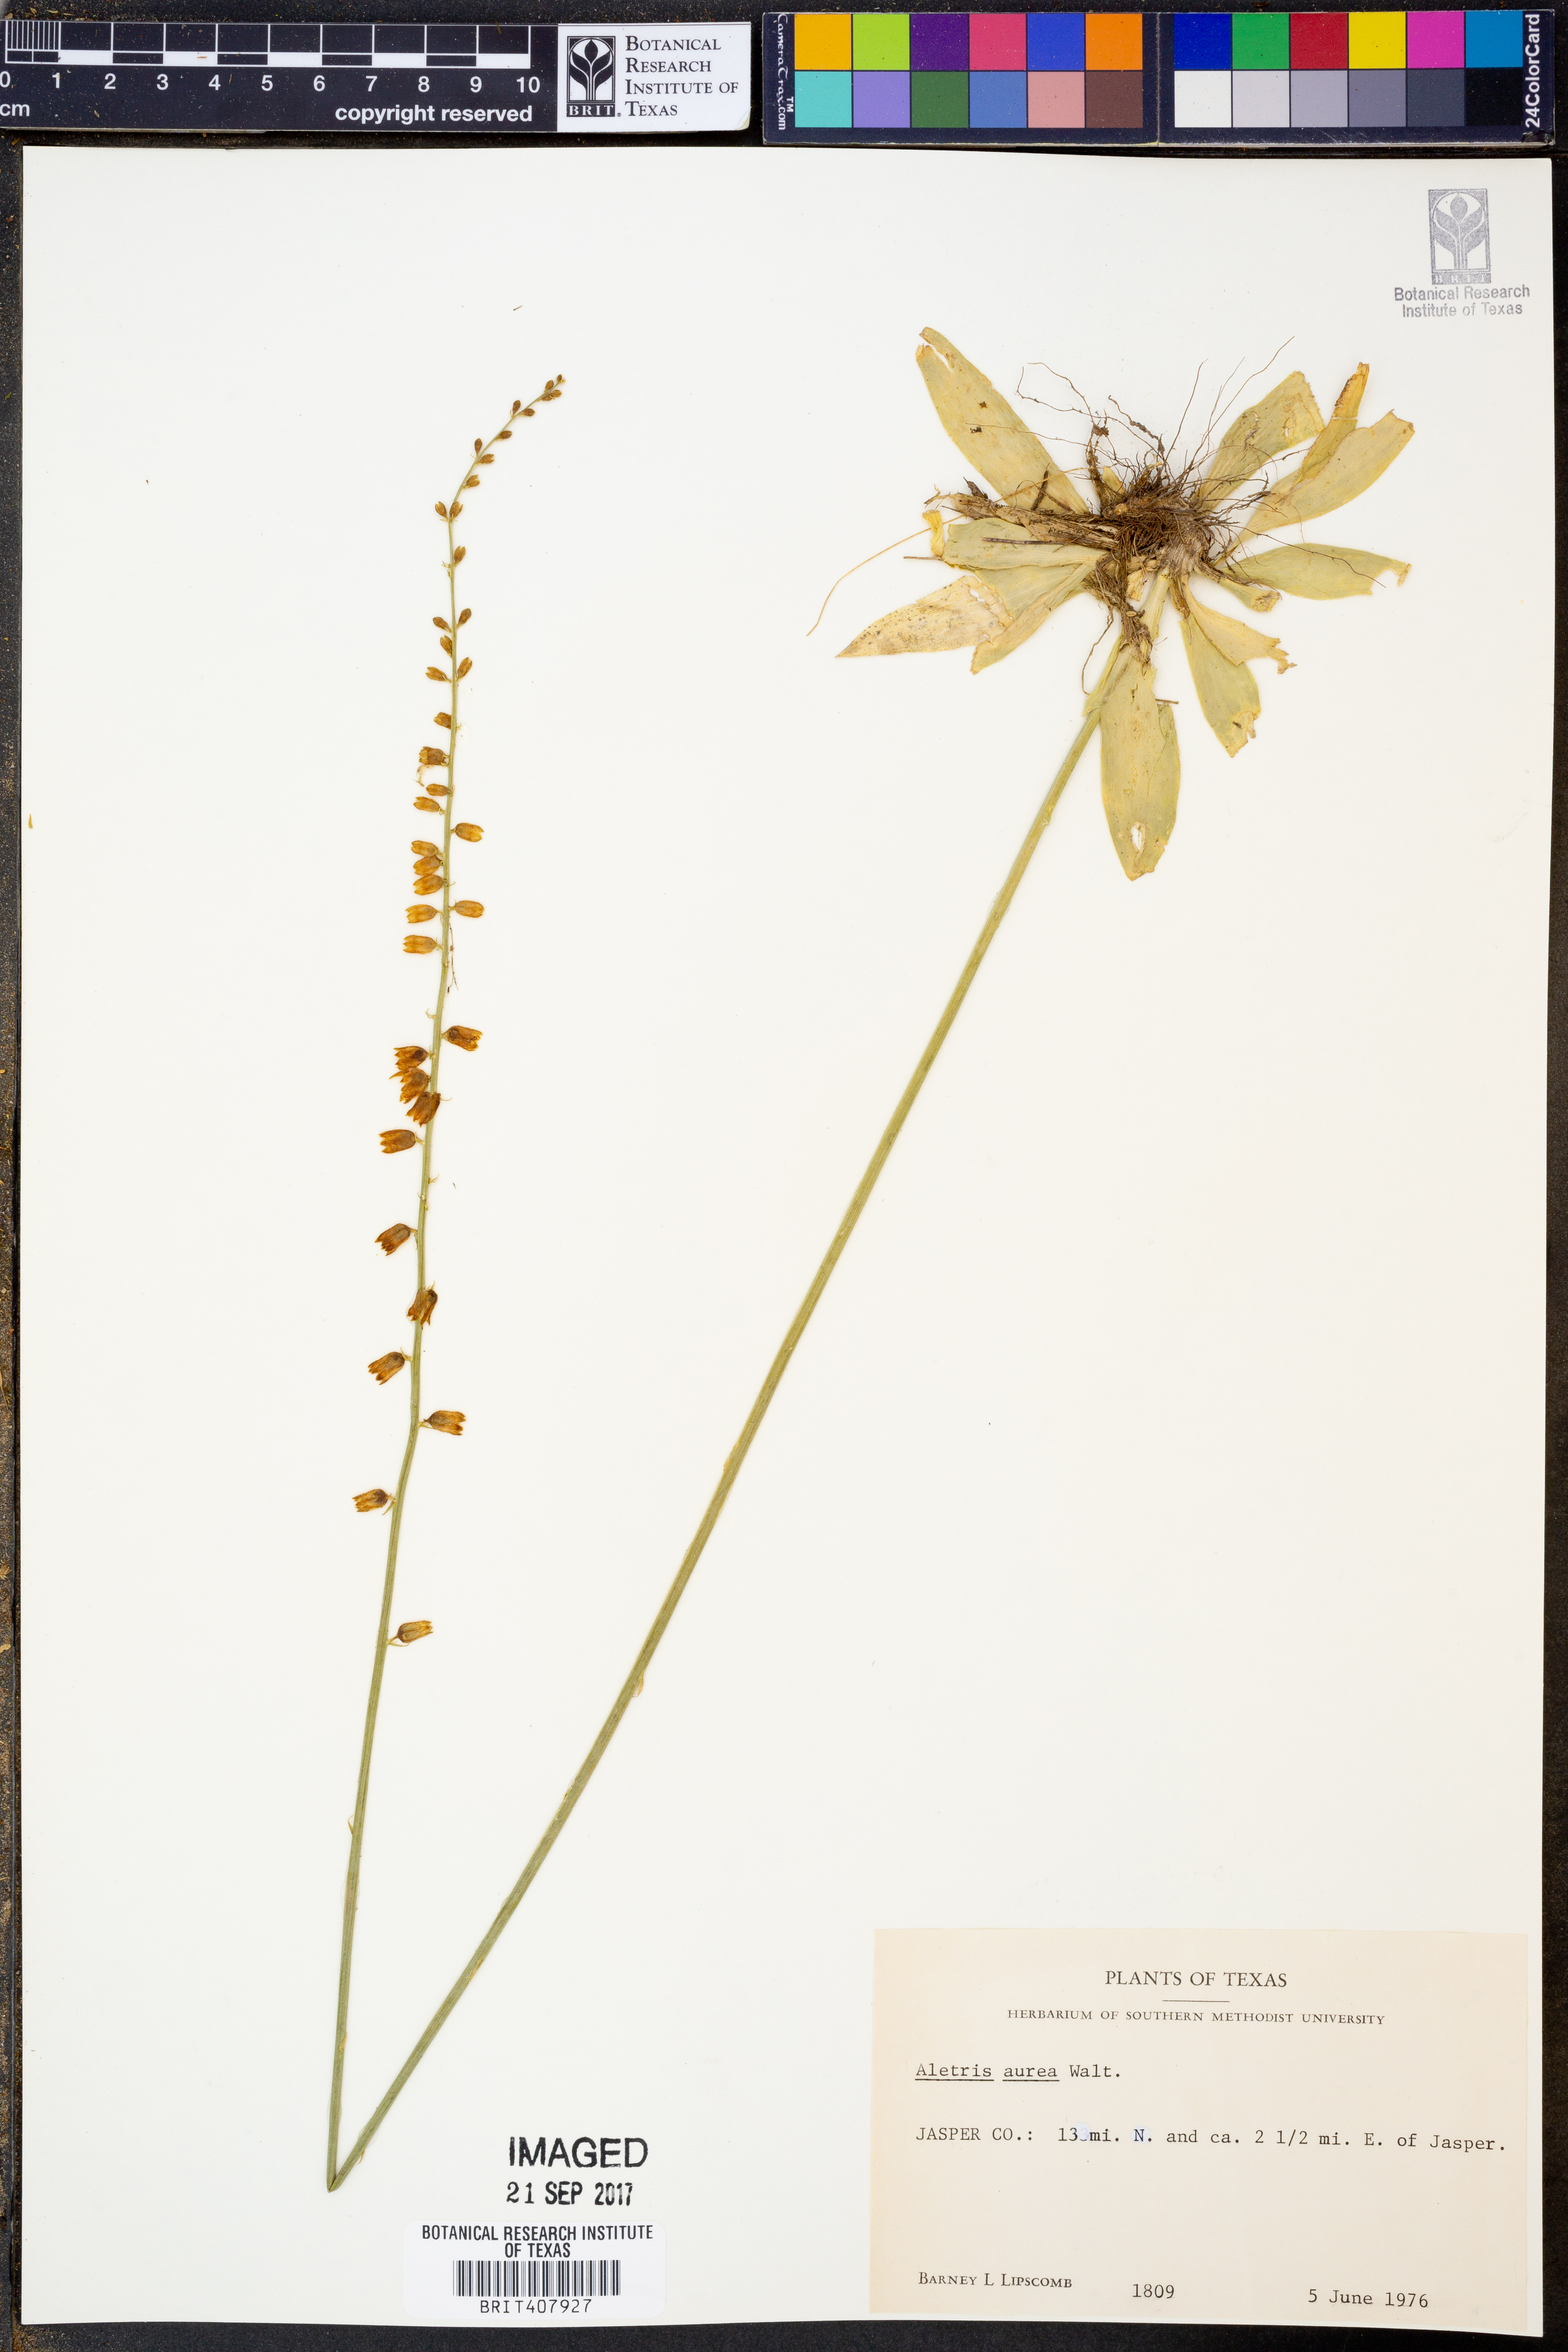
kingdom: Plantae
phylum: Tracheophyta
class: Liliopsida
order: Dioscoreales
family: Nartheciaceae
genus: Aletris
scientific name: Aletris aurea
